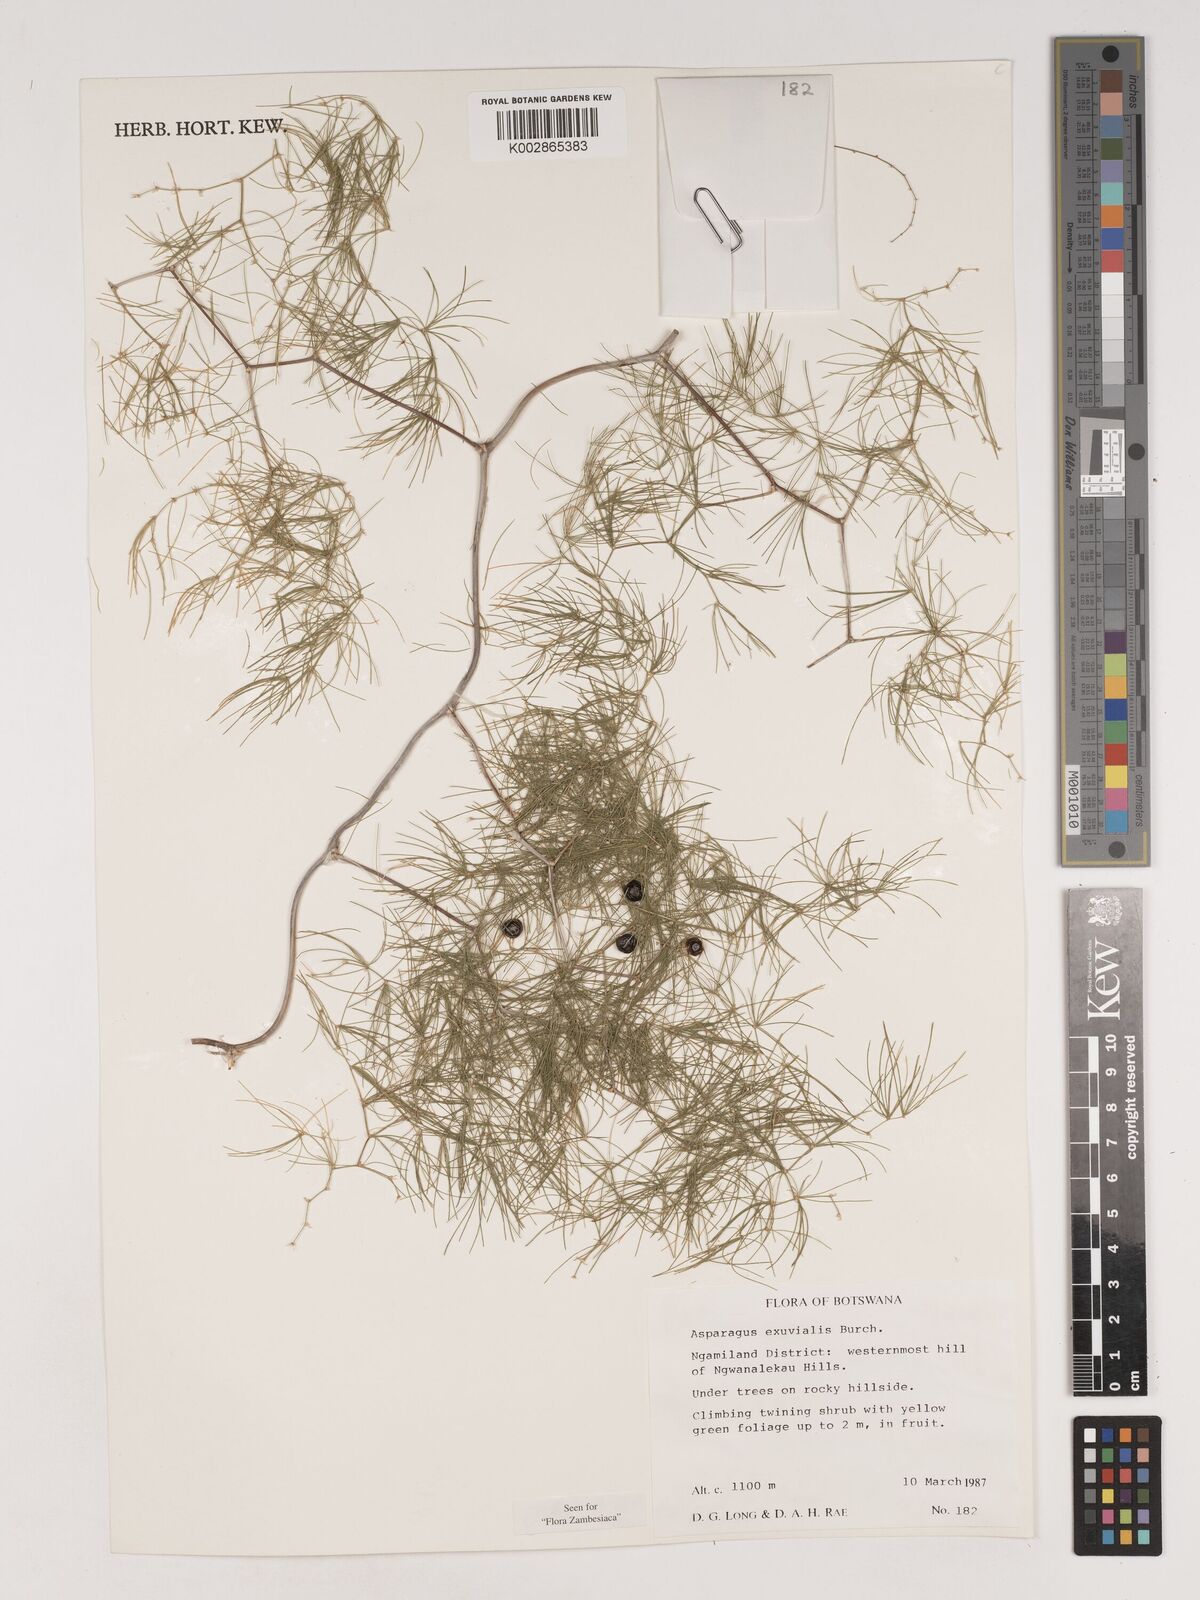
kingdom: Plantae
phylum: Tracheophyta
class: Liliopsida
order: Asparagales
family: Asparagaceae
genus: Asparagus
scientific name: Asparagus exuvialis
